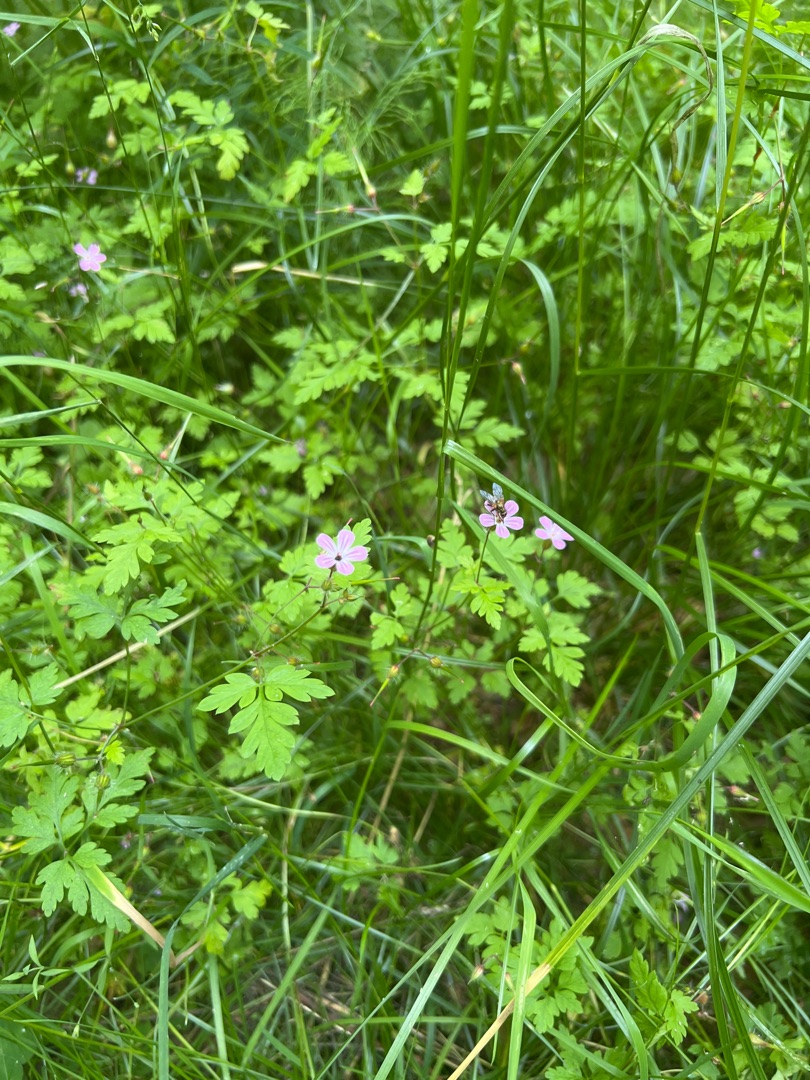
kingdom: Plantae
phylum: Tracheophyta
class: Magnoliopsida
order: Geraniales
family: Geraniaceae
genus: Geranium
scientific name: Geranium robertianum
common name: Stinkende storkenæb
